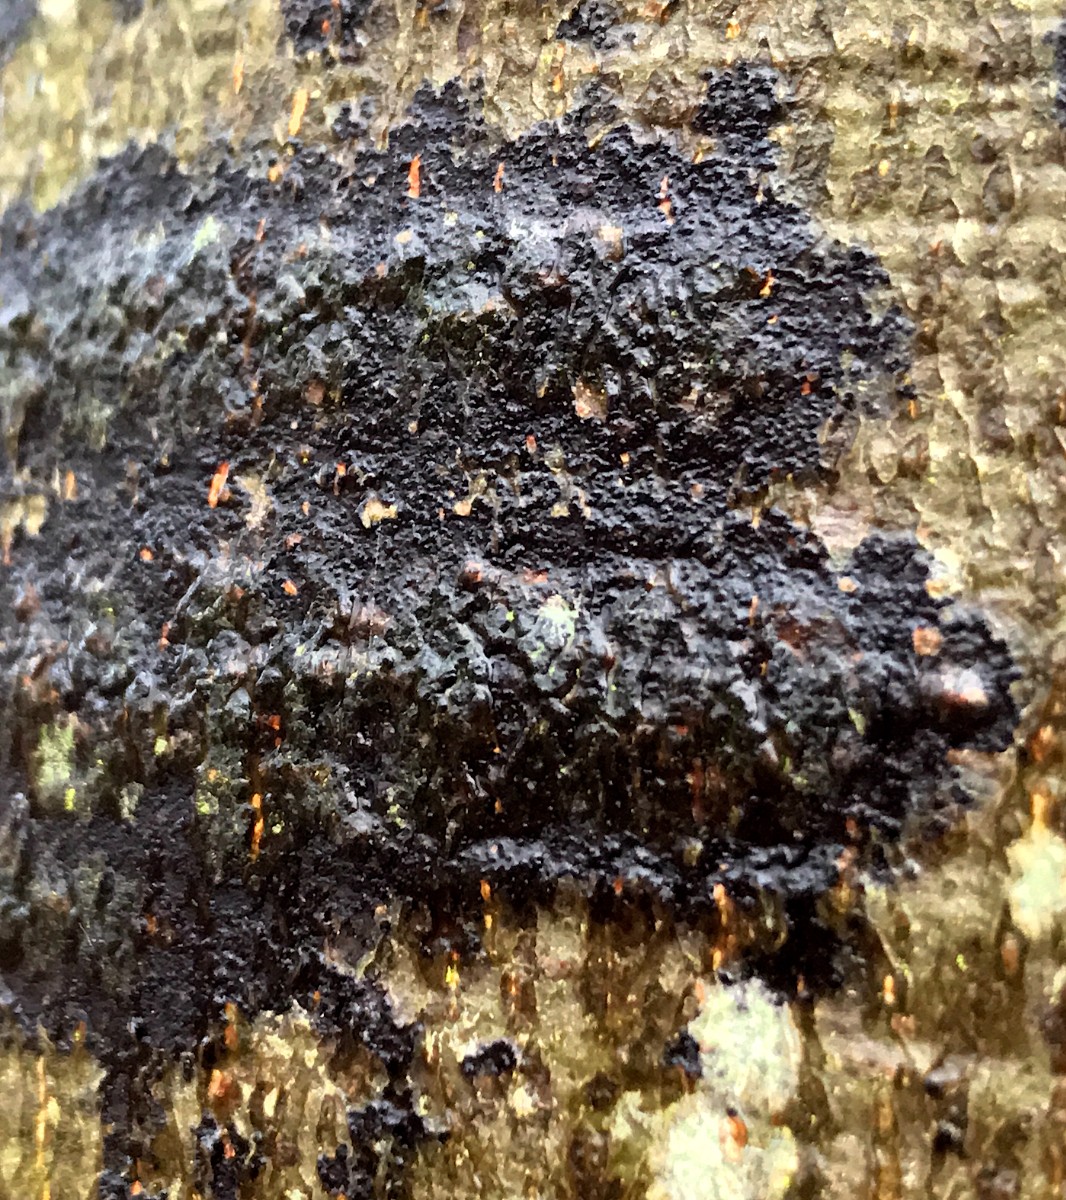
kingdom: Fungi
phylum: Ascomycota
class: Leotiomycetes
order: Rhytismatales
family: Ascodichaenaceae
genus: Ascodichaena
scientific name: Ascodichaena rugosa
